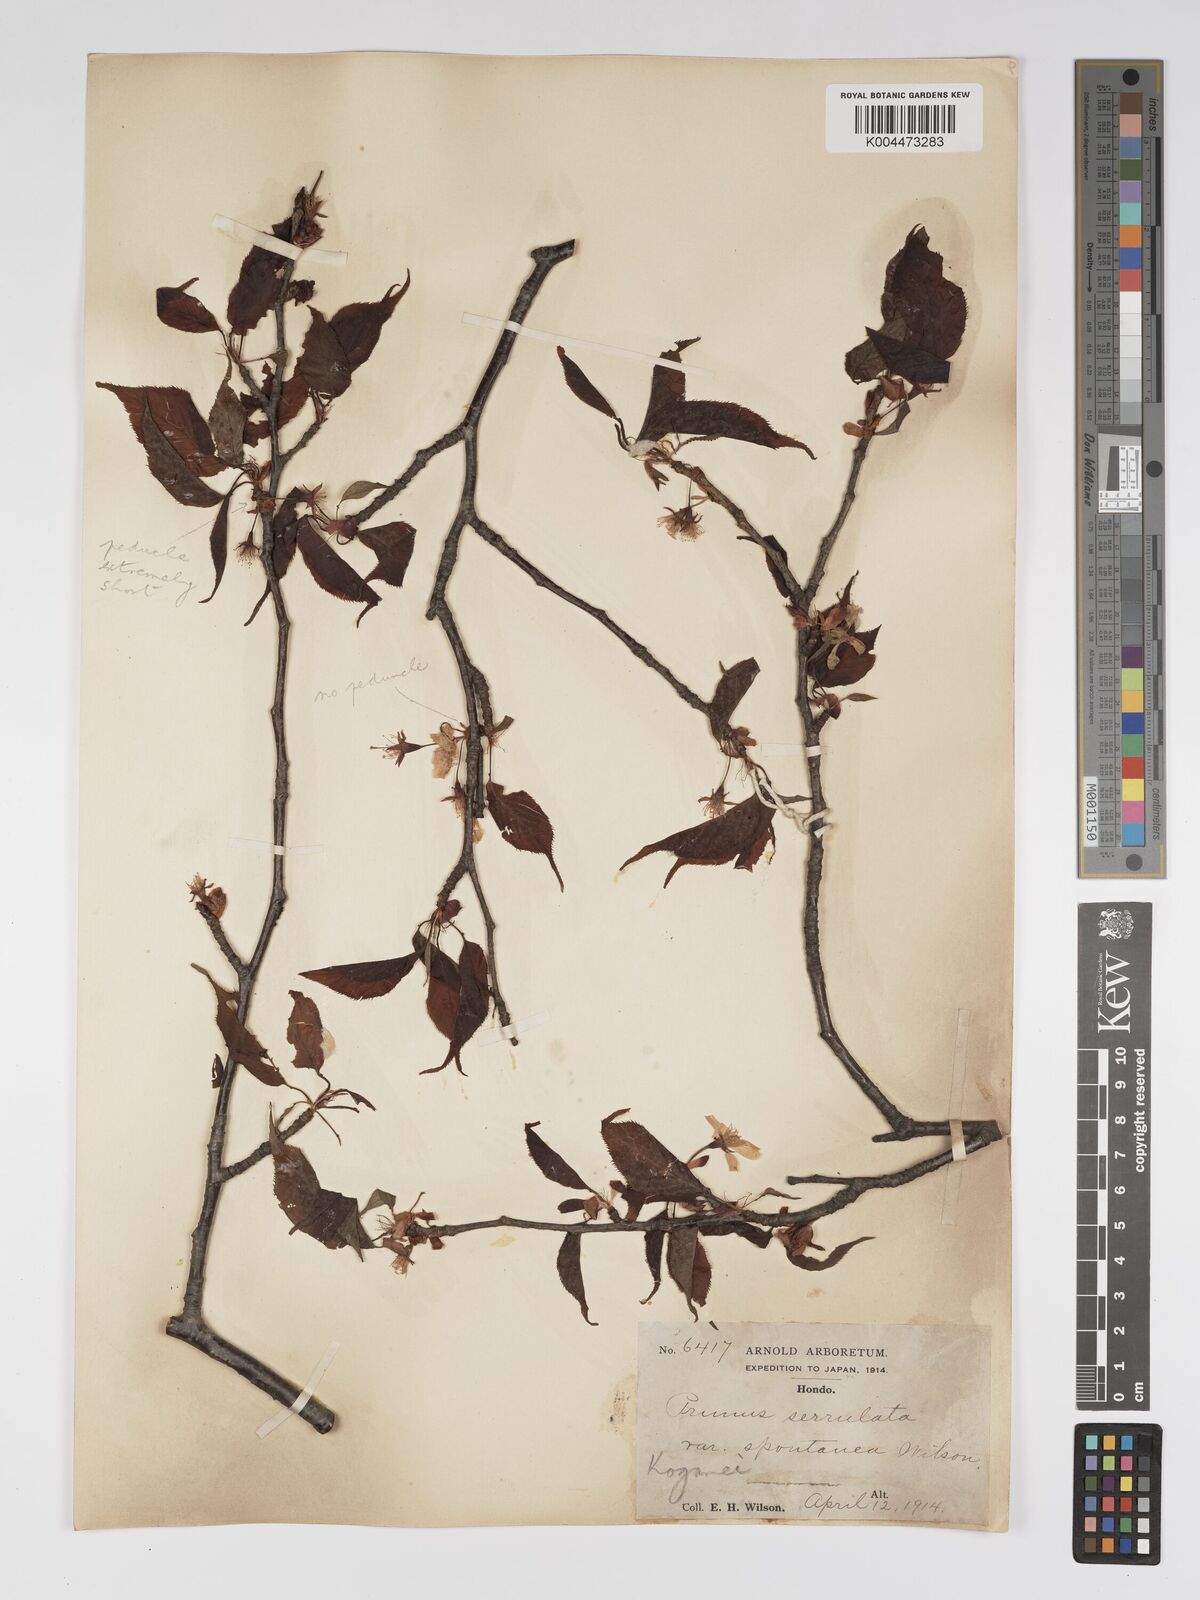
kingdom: Plantae
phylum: Tracheophyta
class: Magnoliopsida
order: Rosales
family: Rosaceae
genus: Prunus
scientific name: Prunus serrulata
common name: Japanese cherry
